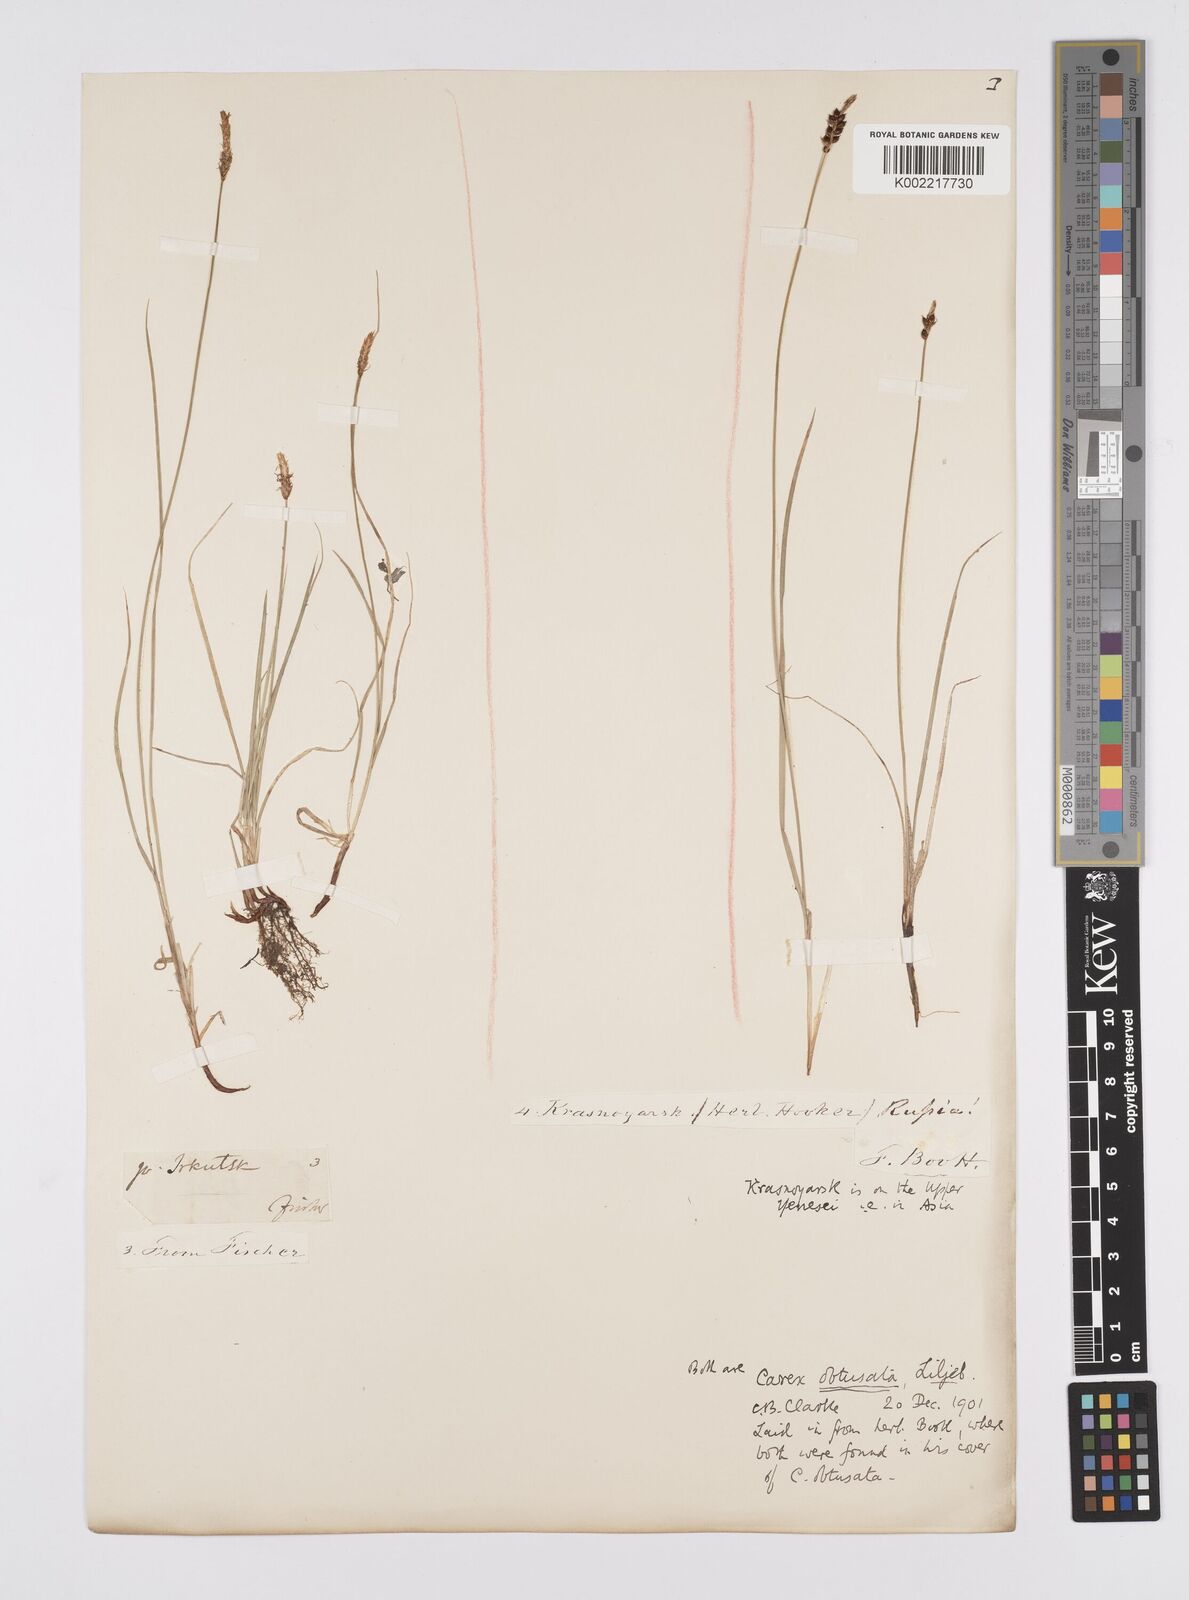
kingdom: Plantae
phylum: Tracheophyta
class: Liliopsida
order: Poales
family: Cyperaceae
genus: Carex
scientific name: Carex obtusata
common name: Blunt sedge
